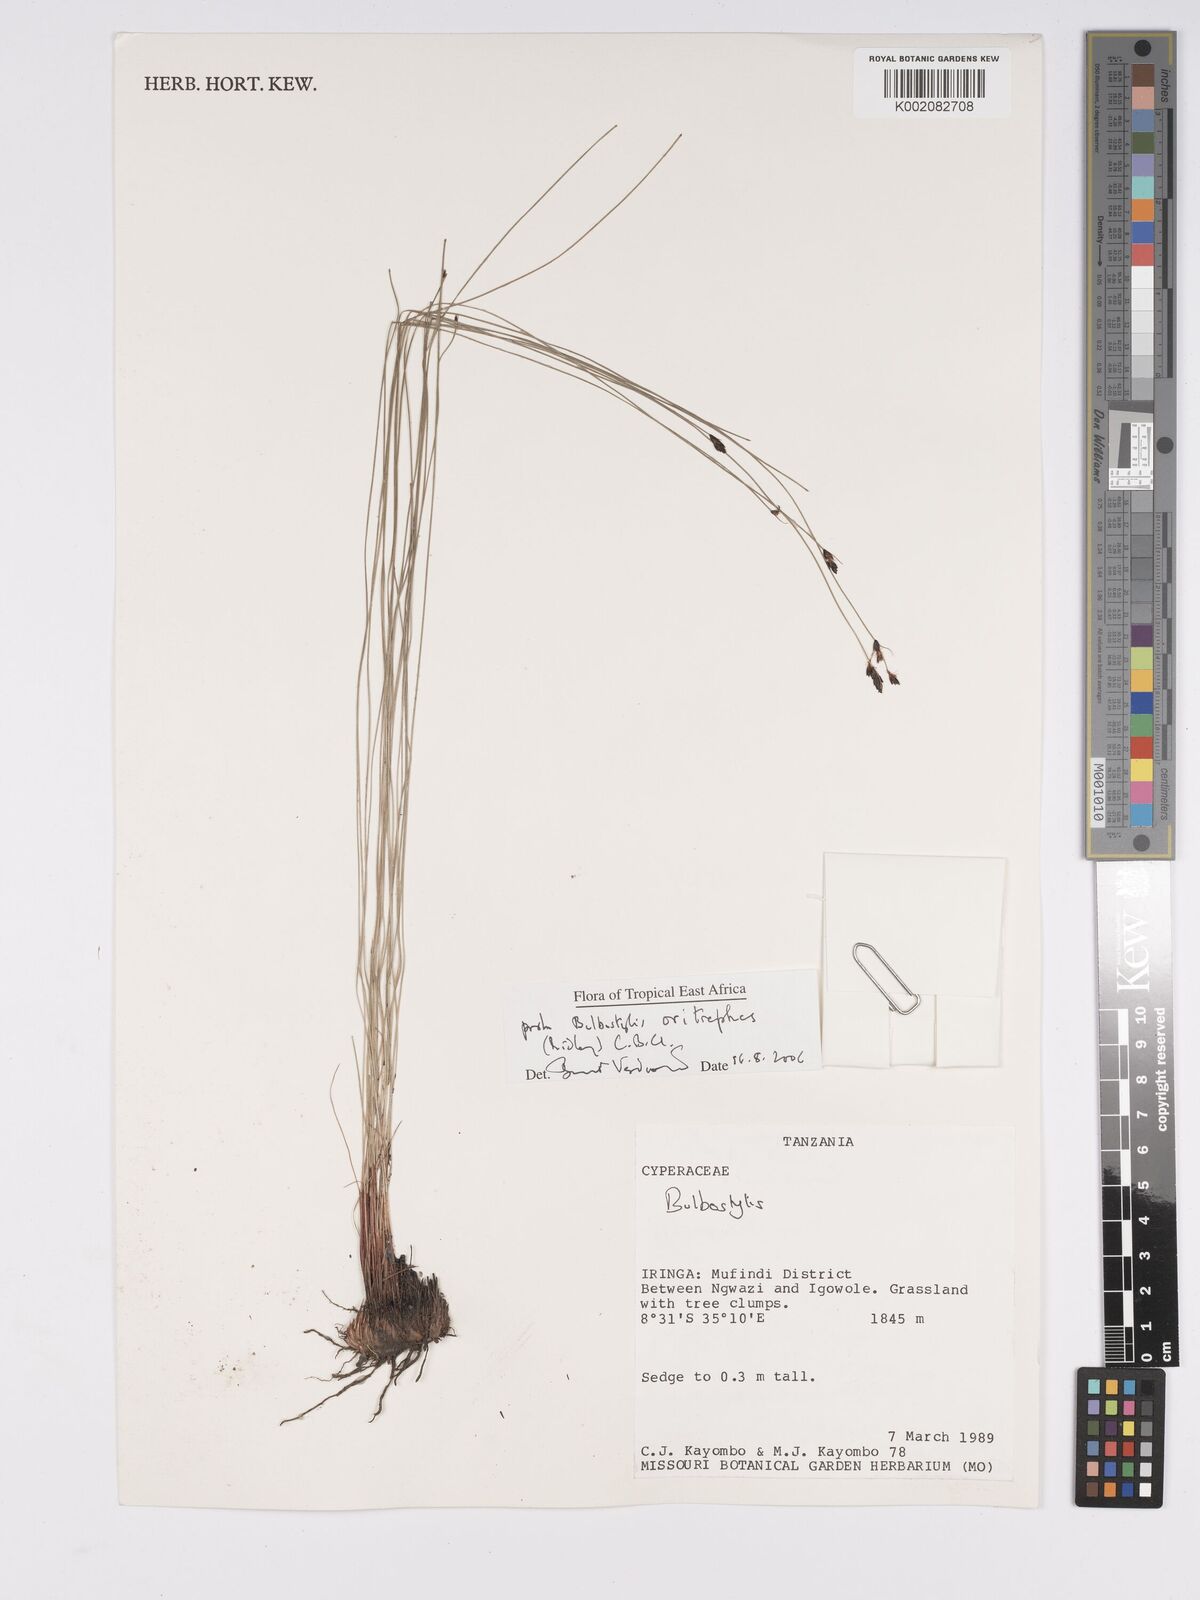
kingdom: Plantae
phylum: Tracheophyta
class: Liliopsida
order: Poales
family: Cyperaceae
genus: Bulbostylis
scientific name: Bulbostylis oritrephes
